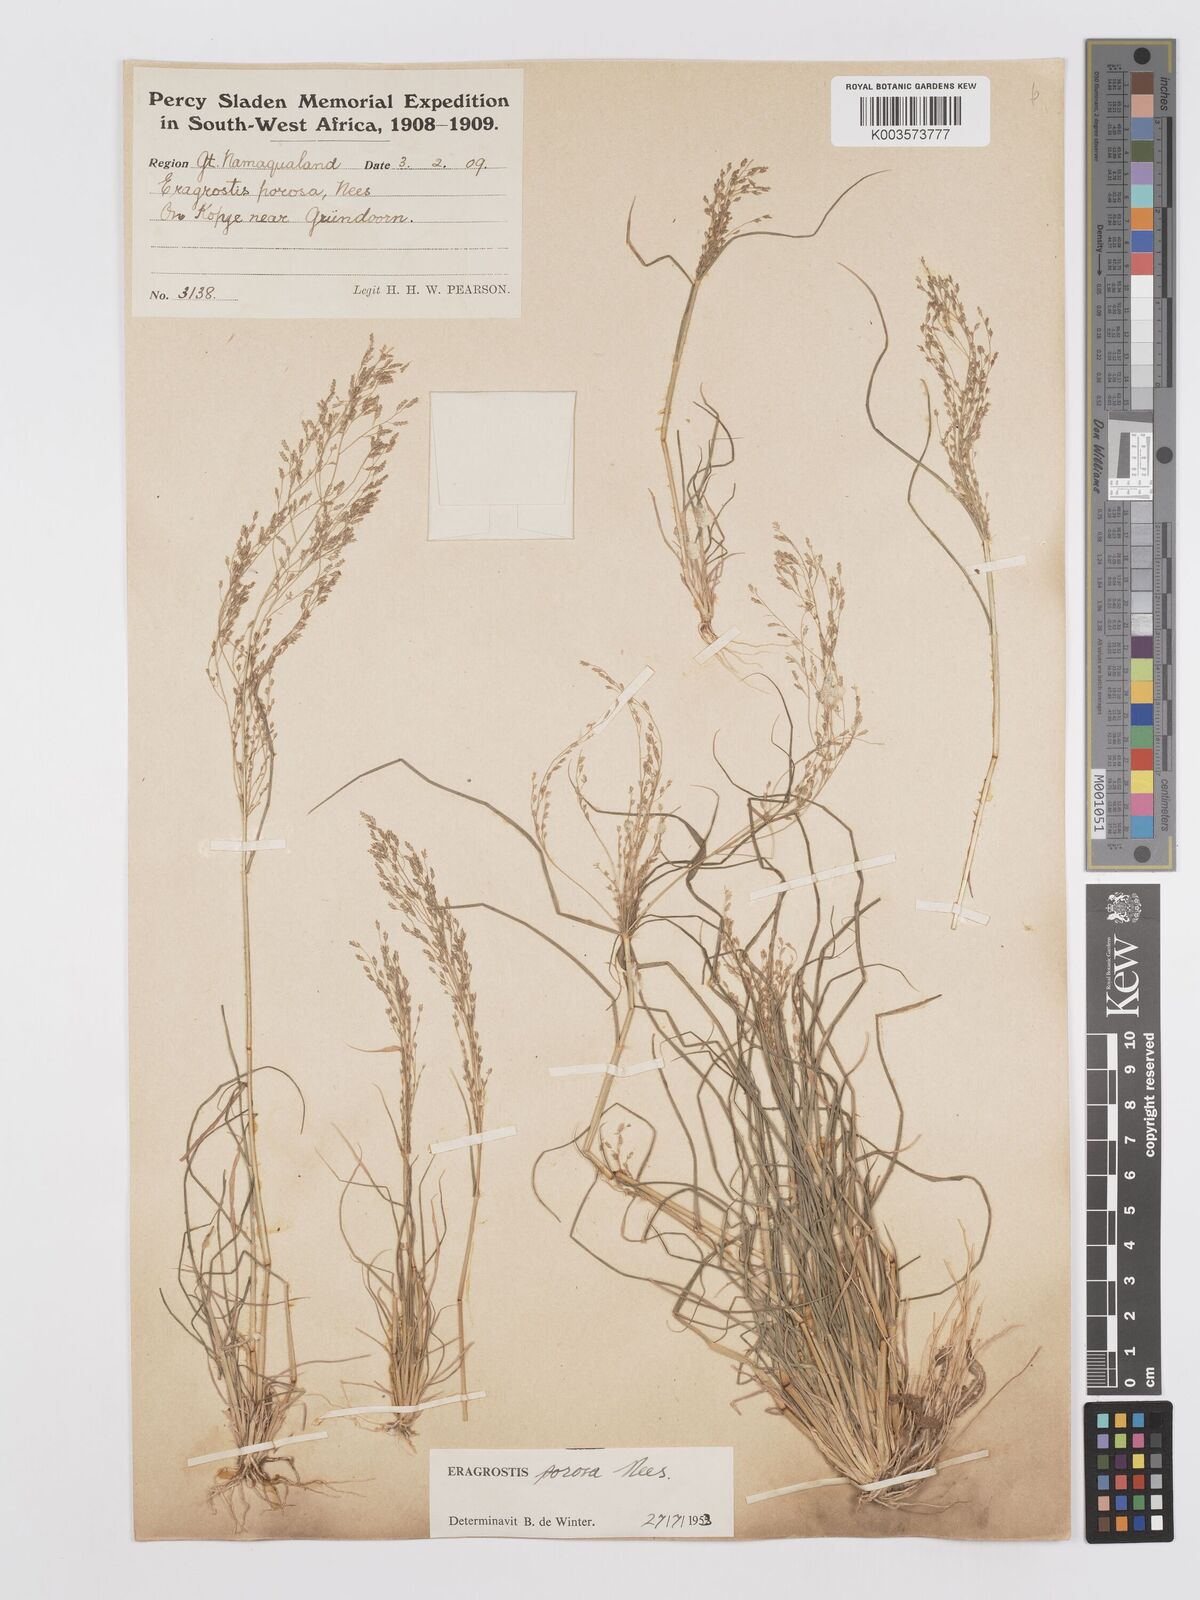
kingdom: Plantae
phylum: Tracheophyta
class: Liliopsida
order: Poales
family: Poaceae
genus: Eragrostis
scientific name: Eragrostis porosa
